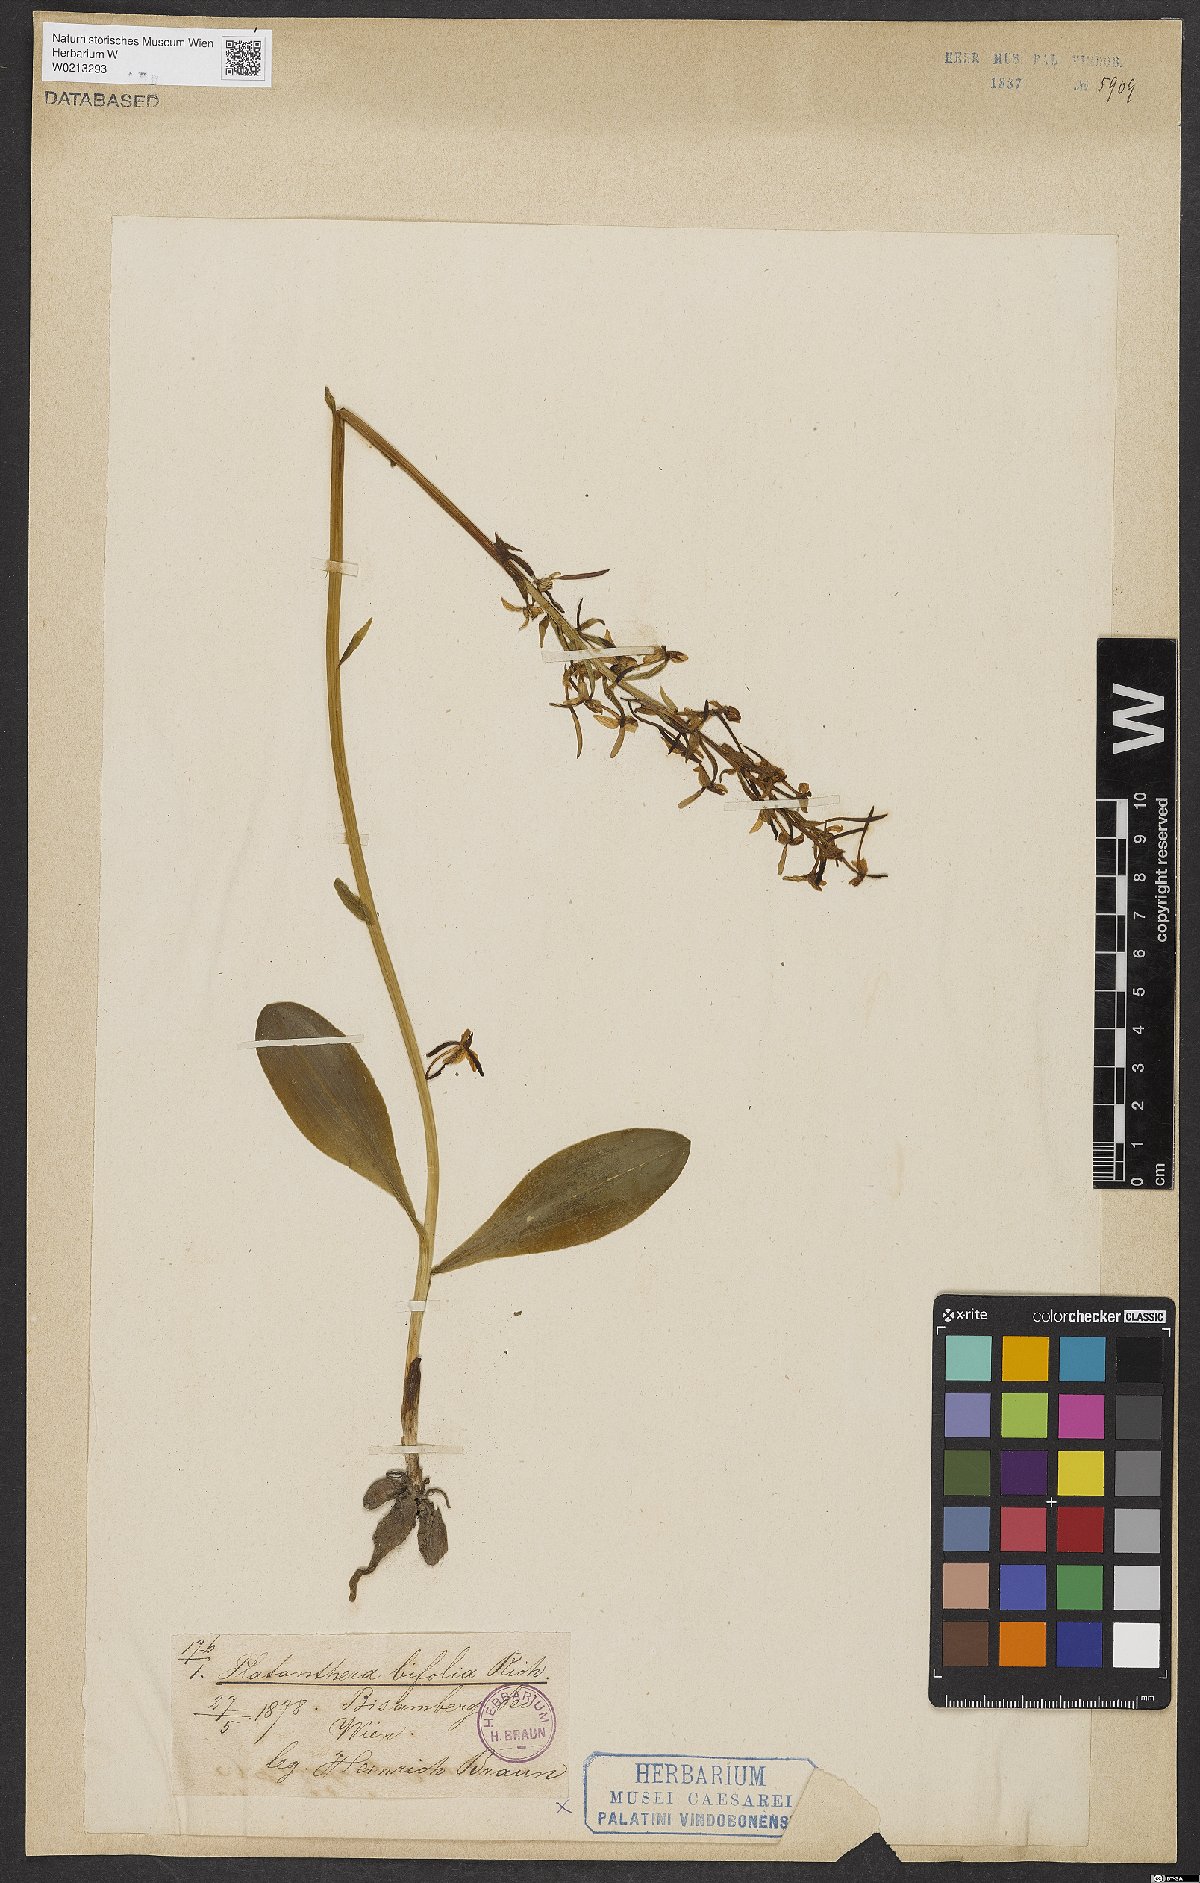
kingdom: Plantae
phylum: Tracheophyta
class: Liliopsida
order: Asparagales
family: Orchidaceae
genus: Platanthera
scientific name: Platanthera bifolia
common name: Lesser butterfly-orchid
